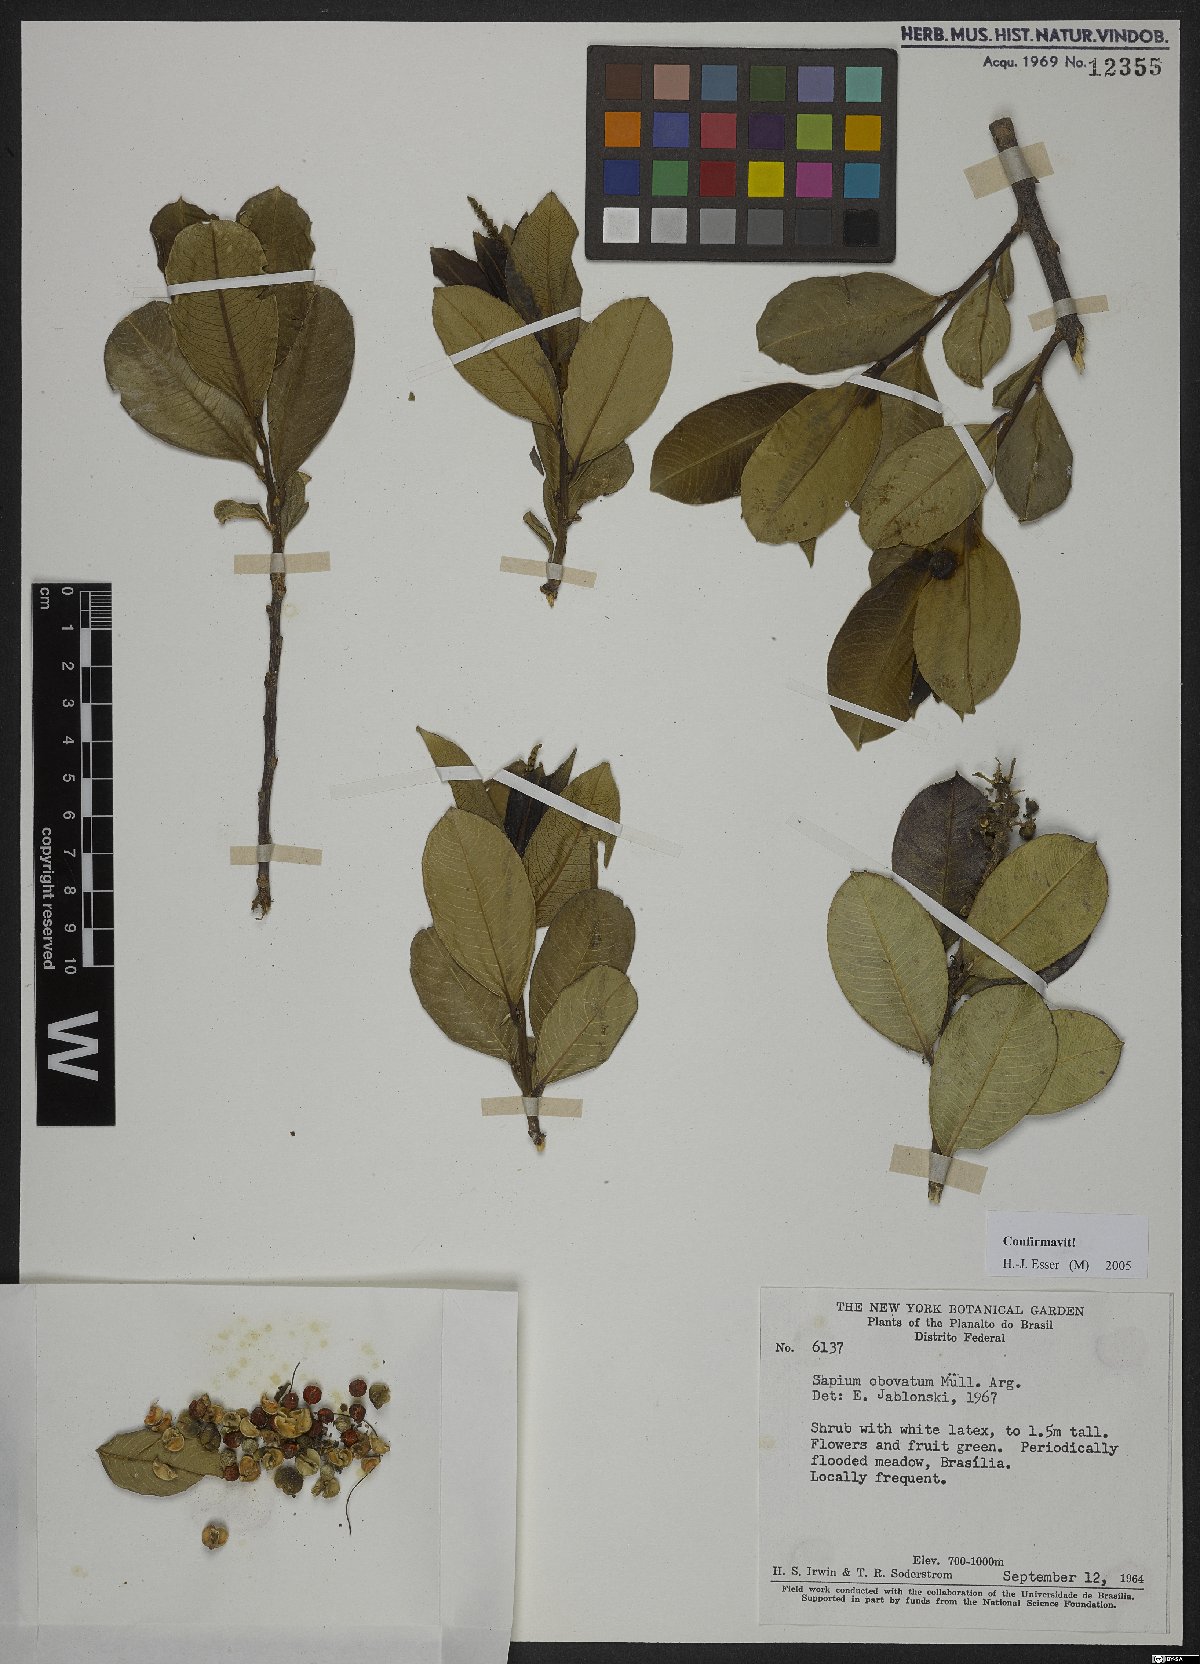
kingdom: Plantae
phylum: Tracheophyta
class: Magnoliopsida
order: Malpighiales
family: Euphorbiaceae
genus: Sapium
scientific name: Sapium obovatum
